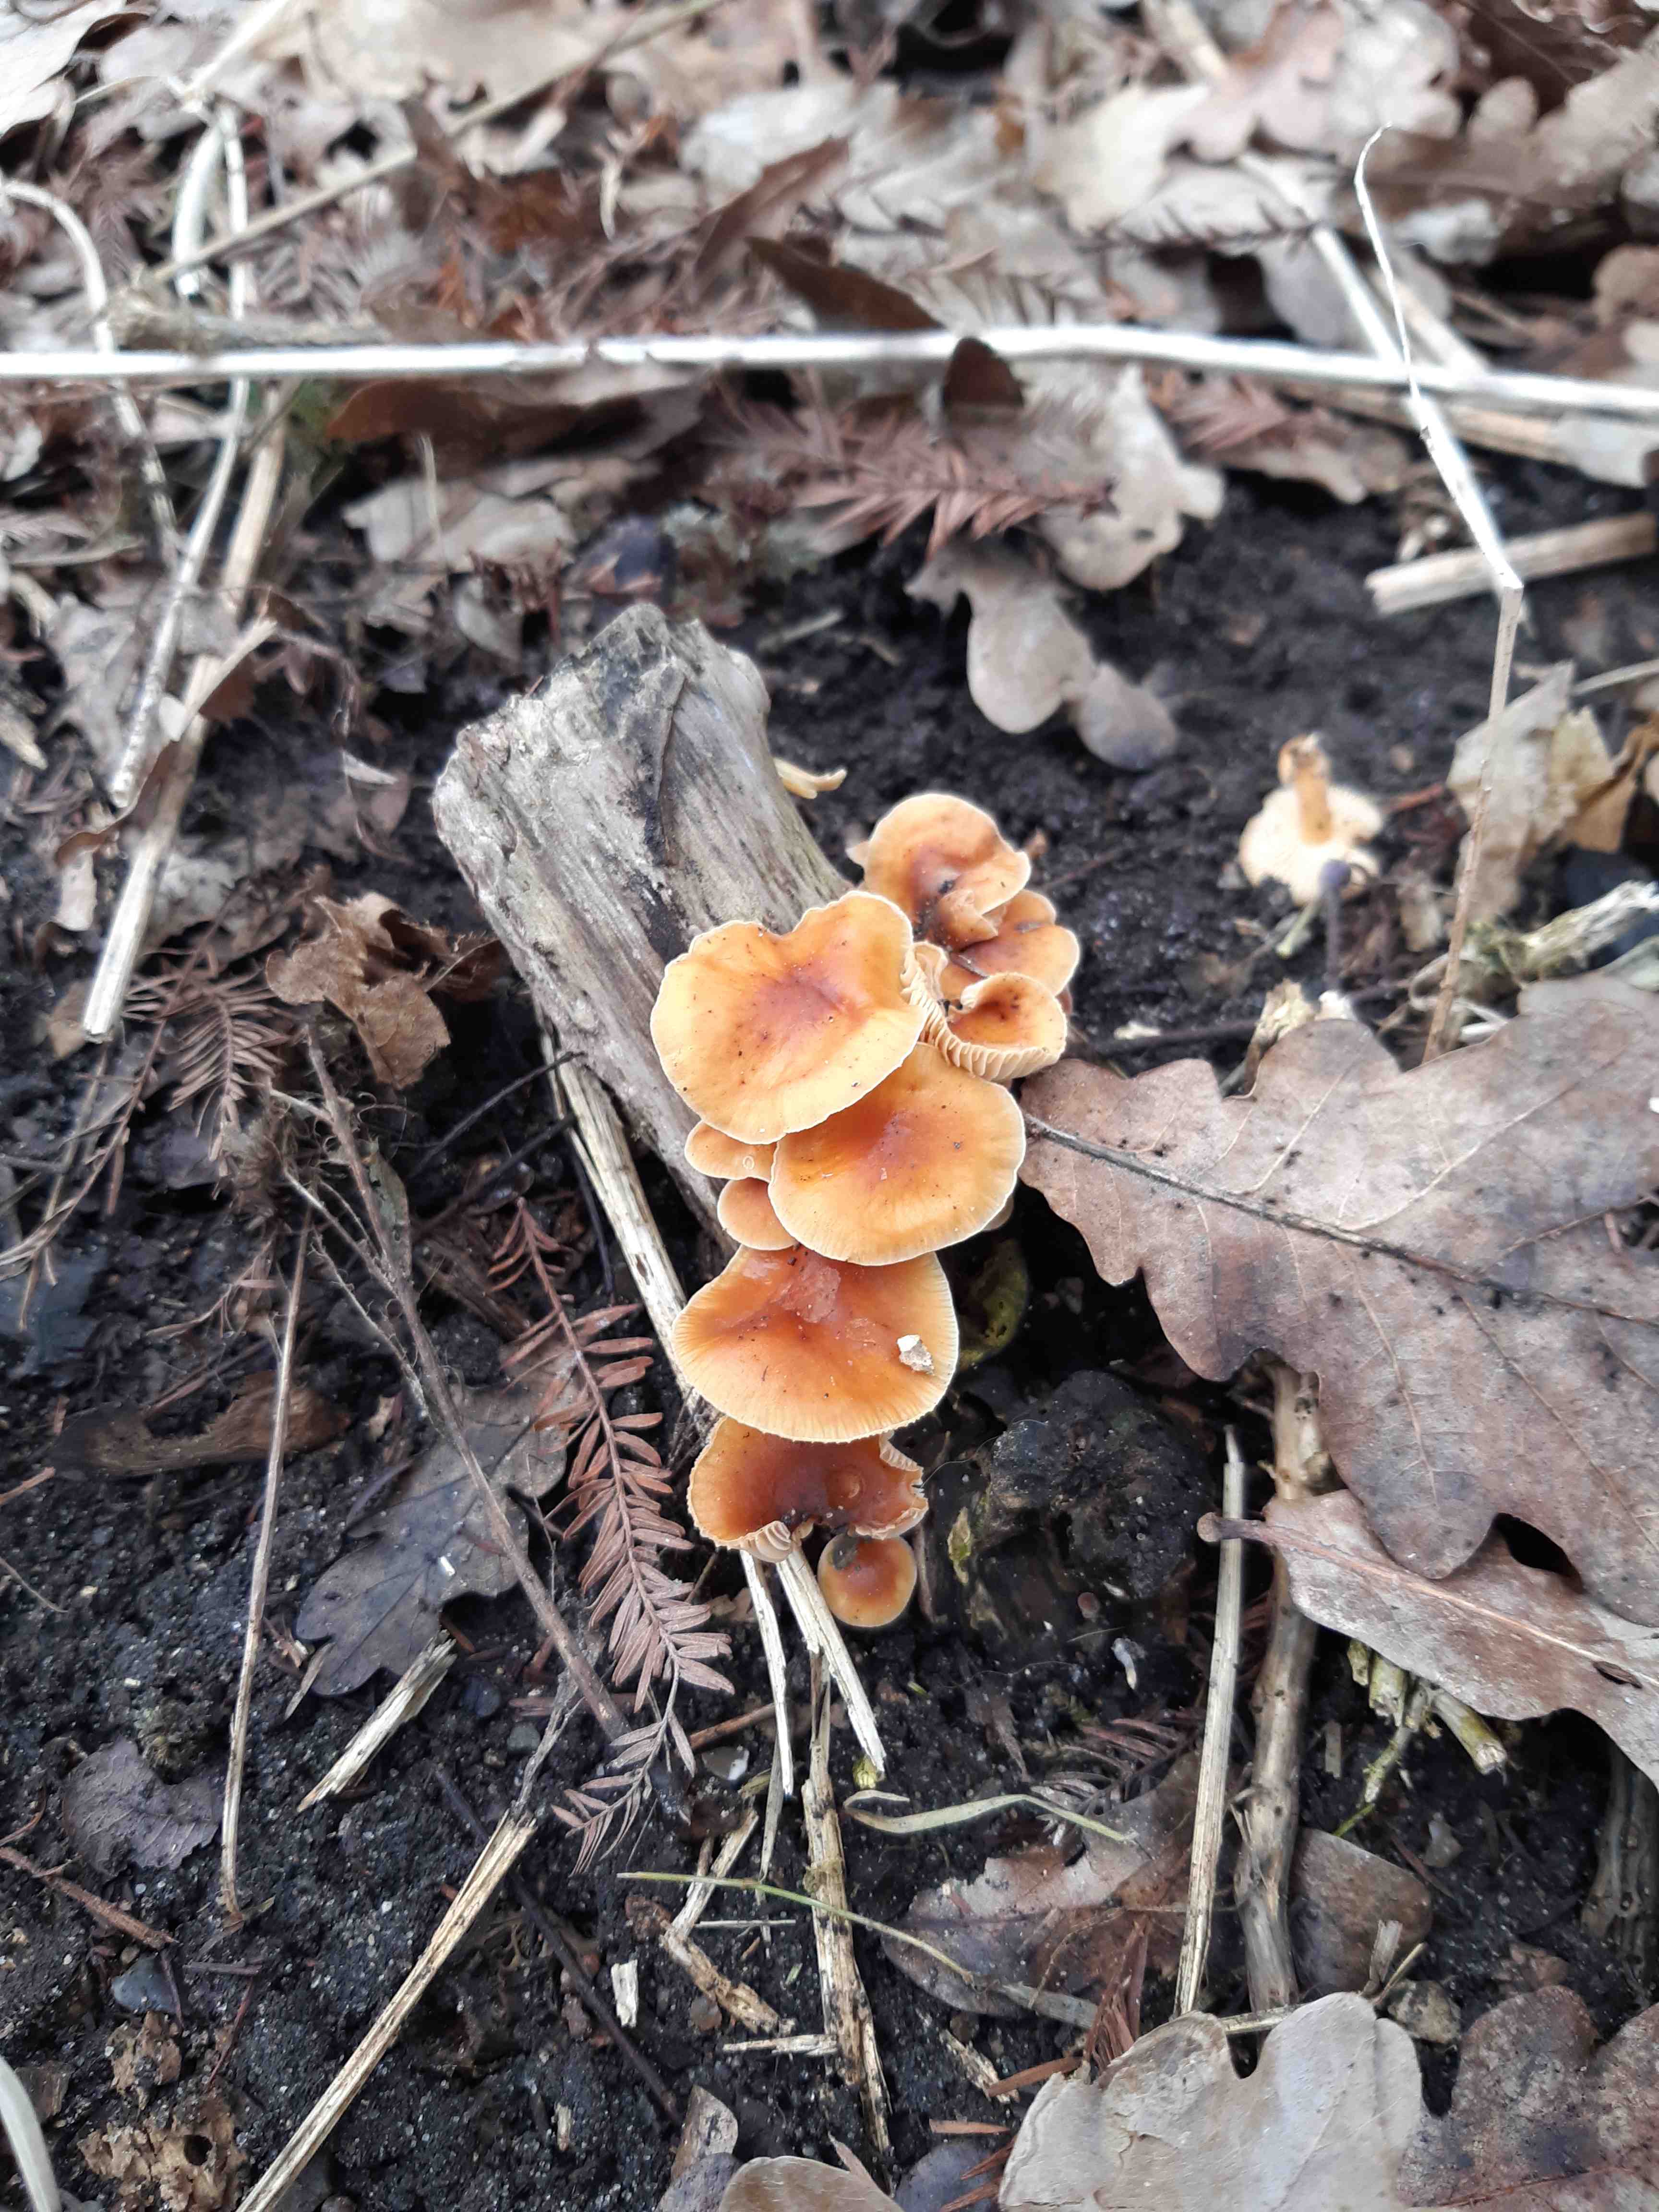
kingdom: Fungi
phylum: Basidiomycota
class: Agaricomycetes
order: Agaricales
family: Physalacriaceae
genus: Flammulina
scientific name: Flammulina
